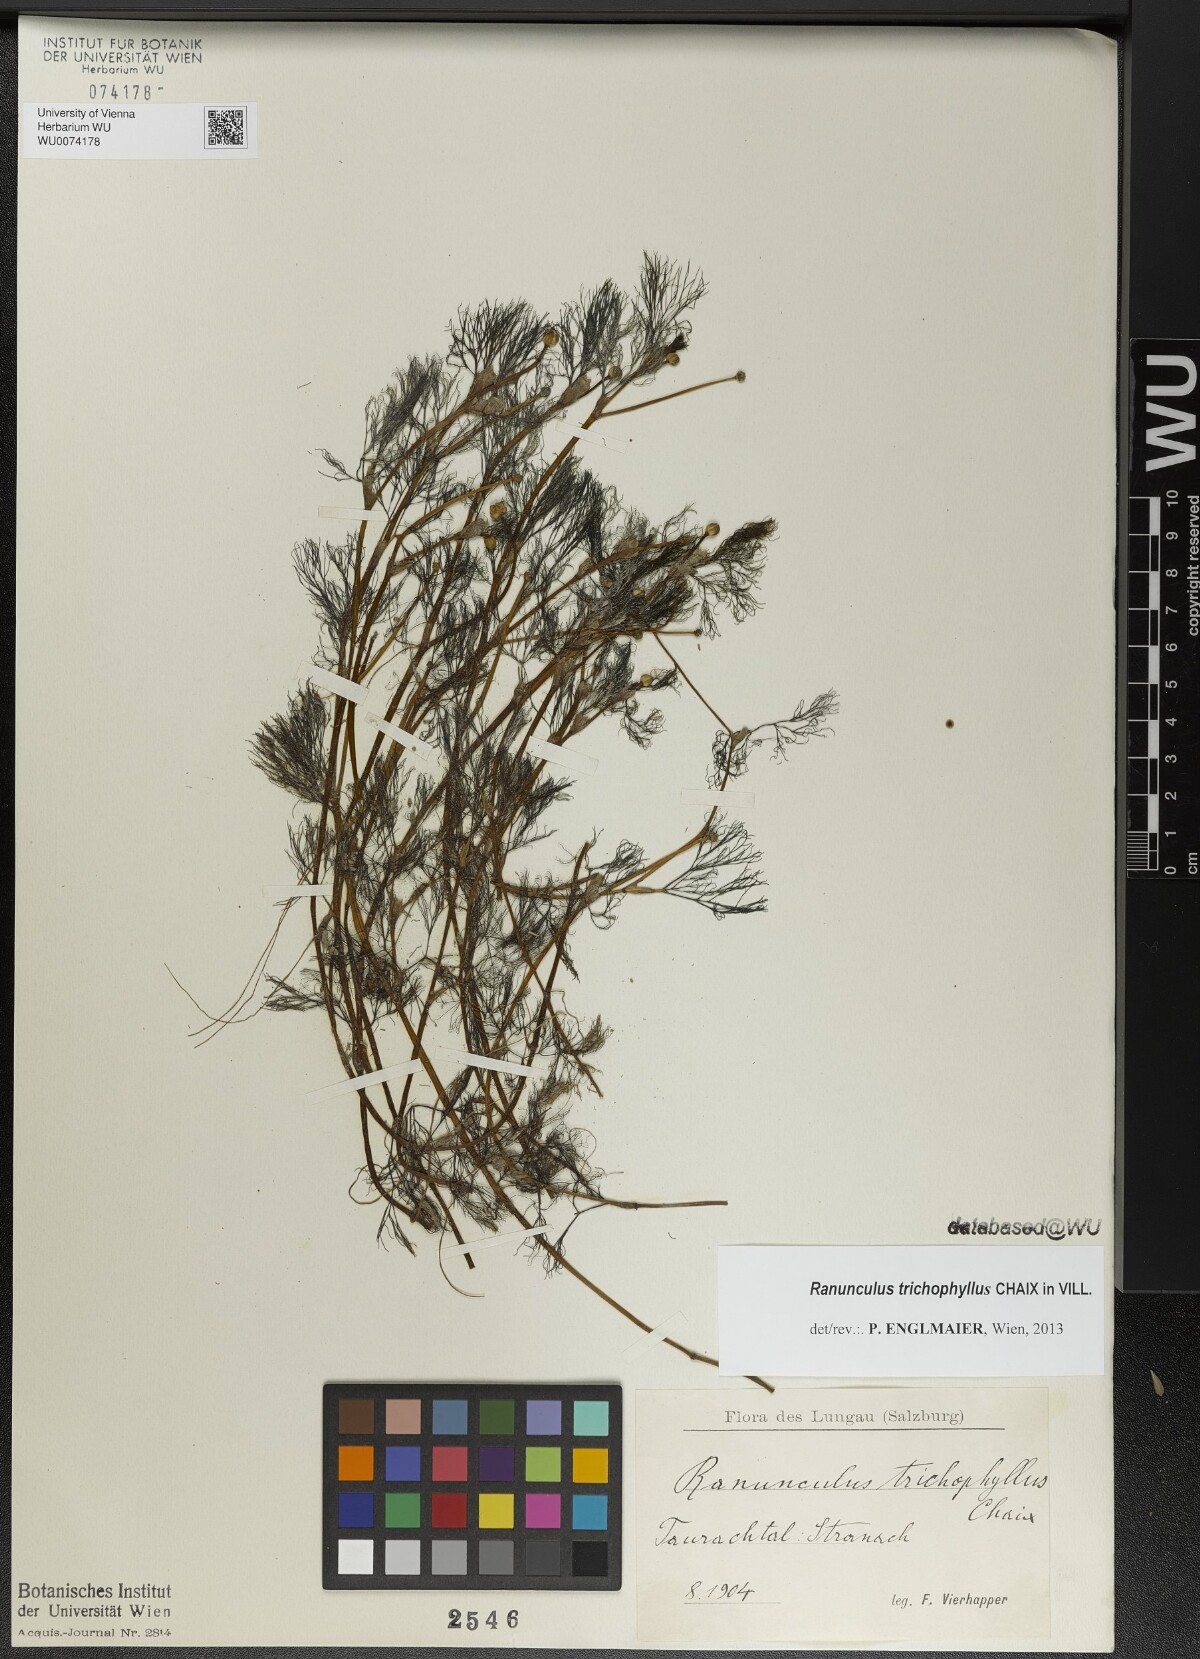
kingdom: Plantae
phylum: Tracheophyta
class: Magnoliopsida
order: Ranunculales
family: Ranunculaceae
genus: Ranunculus
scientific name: Ranunculus trichophyllus
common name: Thread-leaved water-crowfoot
